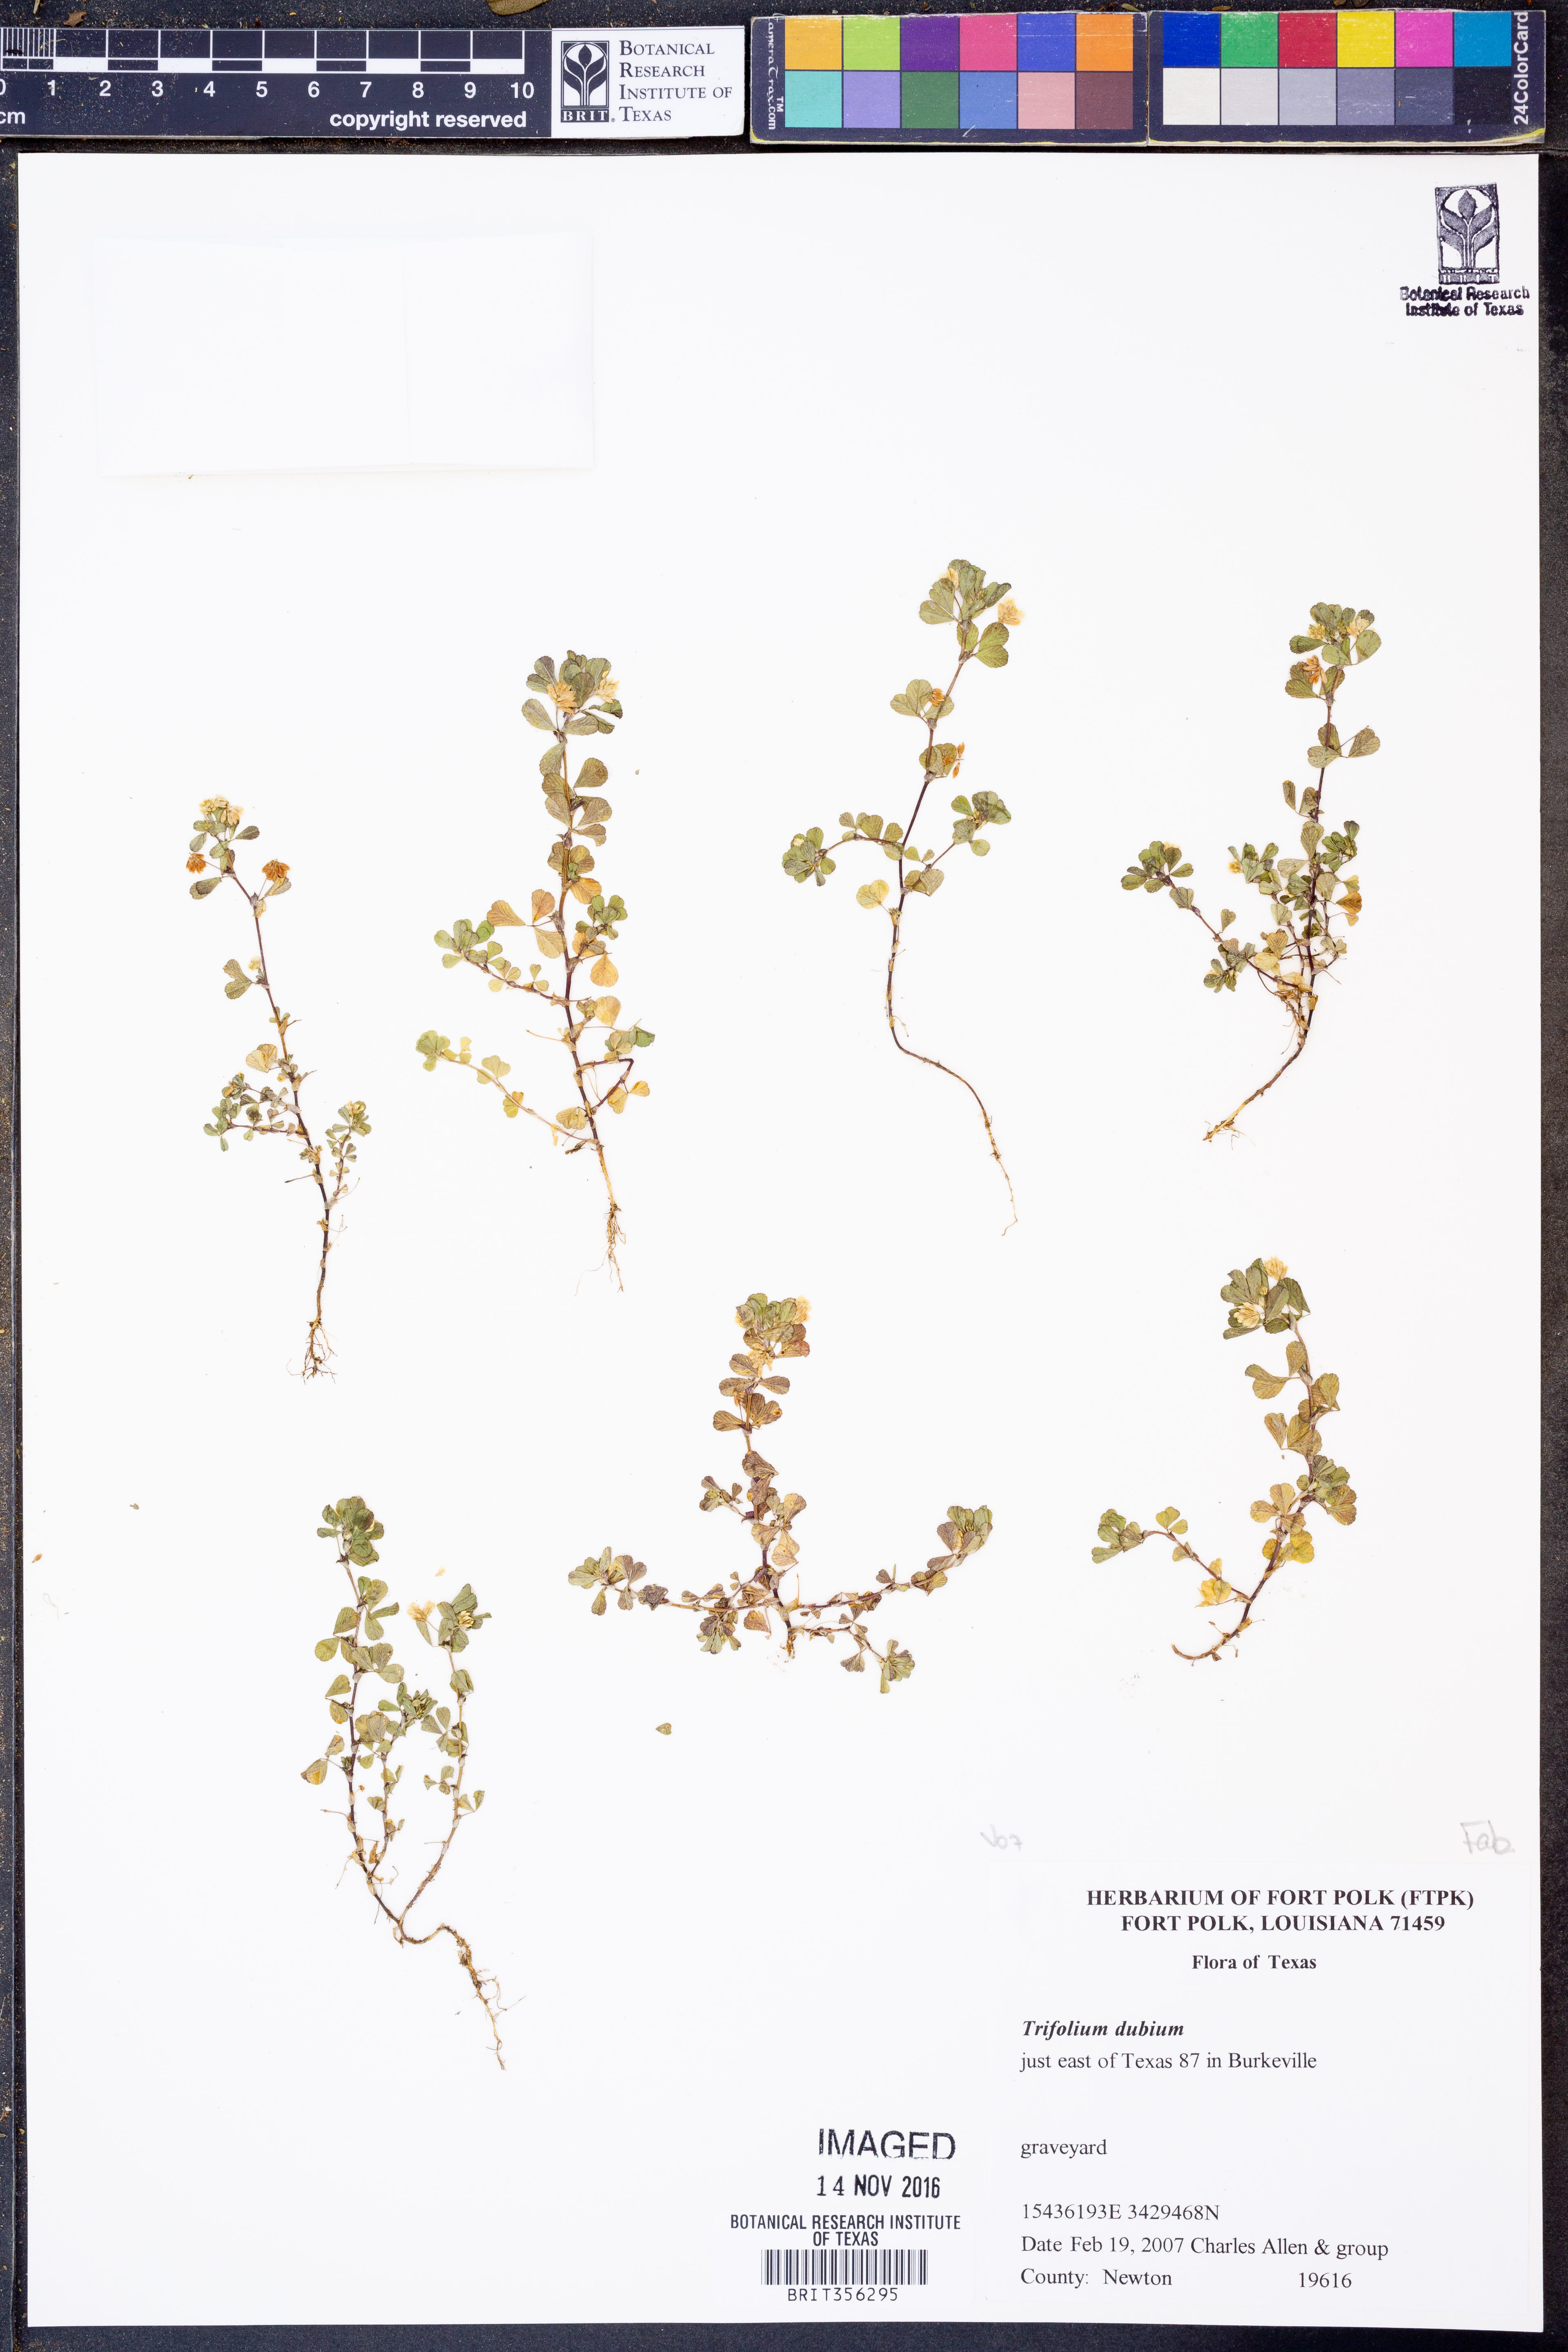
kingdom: Plantae
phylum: Tracheophyta
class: Magnoliopsida
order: Fabales
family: Fabaceae
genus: Trifolium
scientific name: Trifolium dubium
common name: Suckling clover
